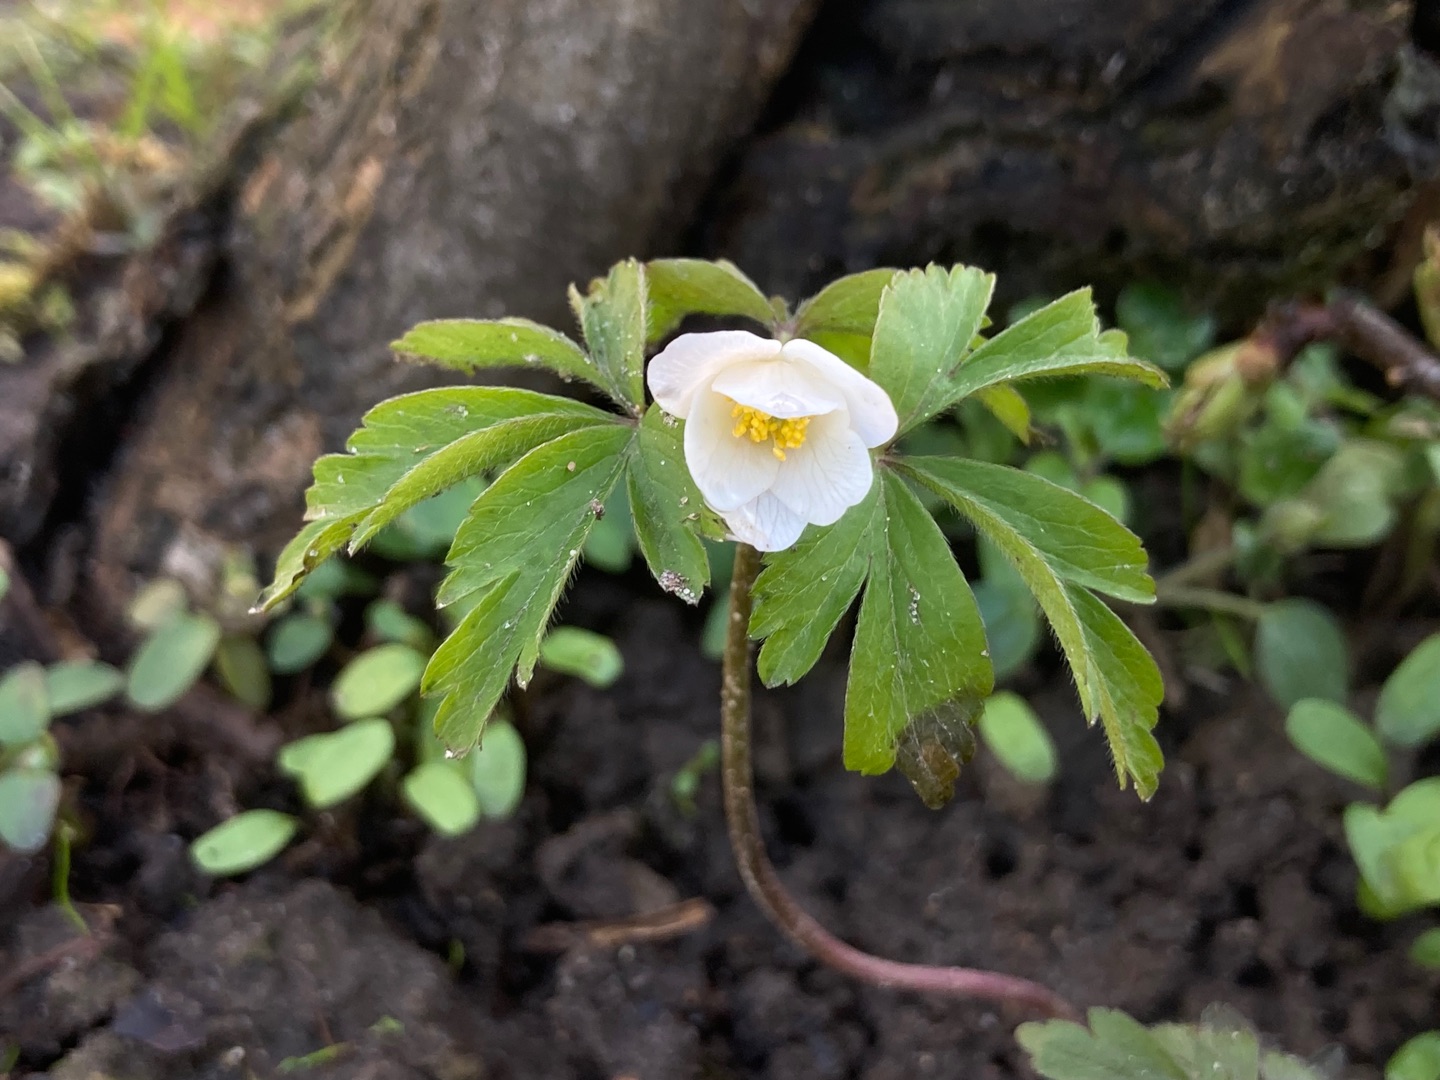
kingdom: Plantae
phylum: Tracheophyta
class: Magnoliopsida
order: Ranunculales
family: Ranunculaceae
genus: Anemone
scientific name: Anemone nemorosa
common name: Hvid anemone
